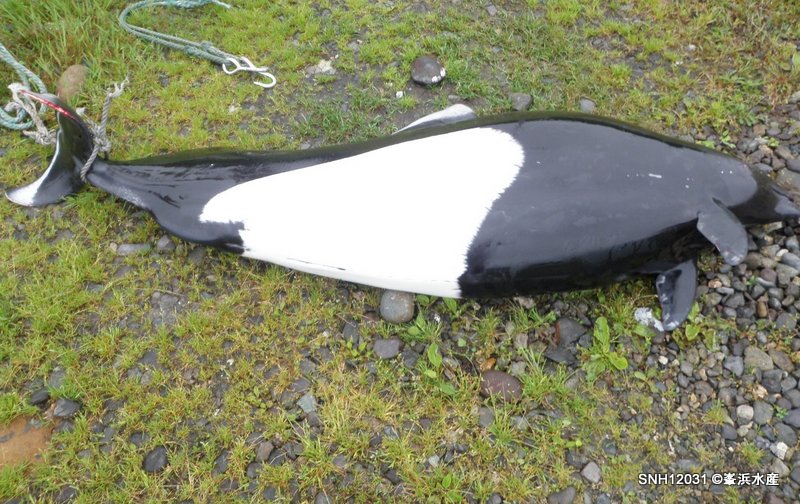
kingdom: Animalia
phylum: Chordata
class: Mammalia
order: Cetacea
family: Phocoenidae
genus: Phocoenoides
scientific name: Phocoenoides dalli
